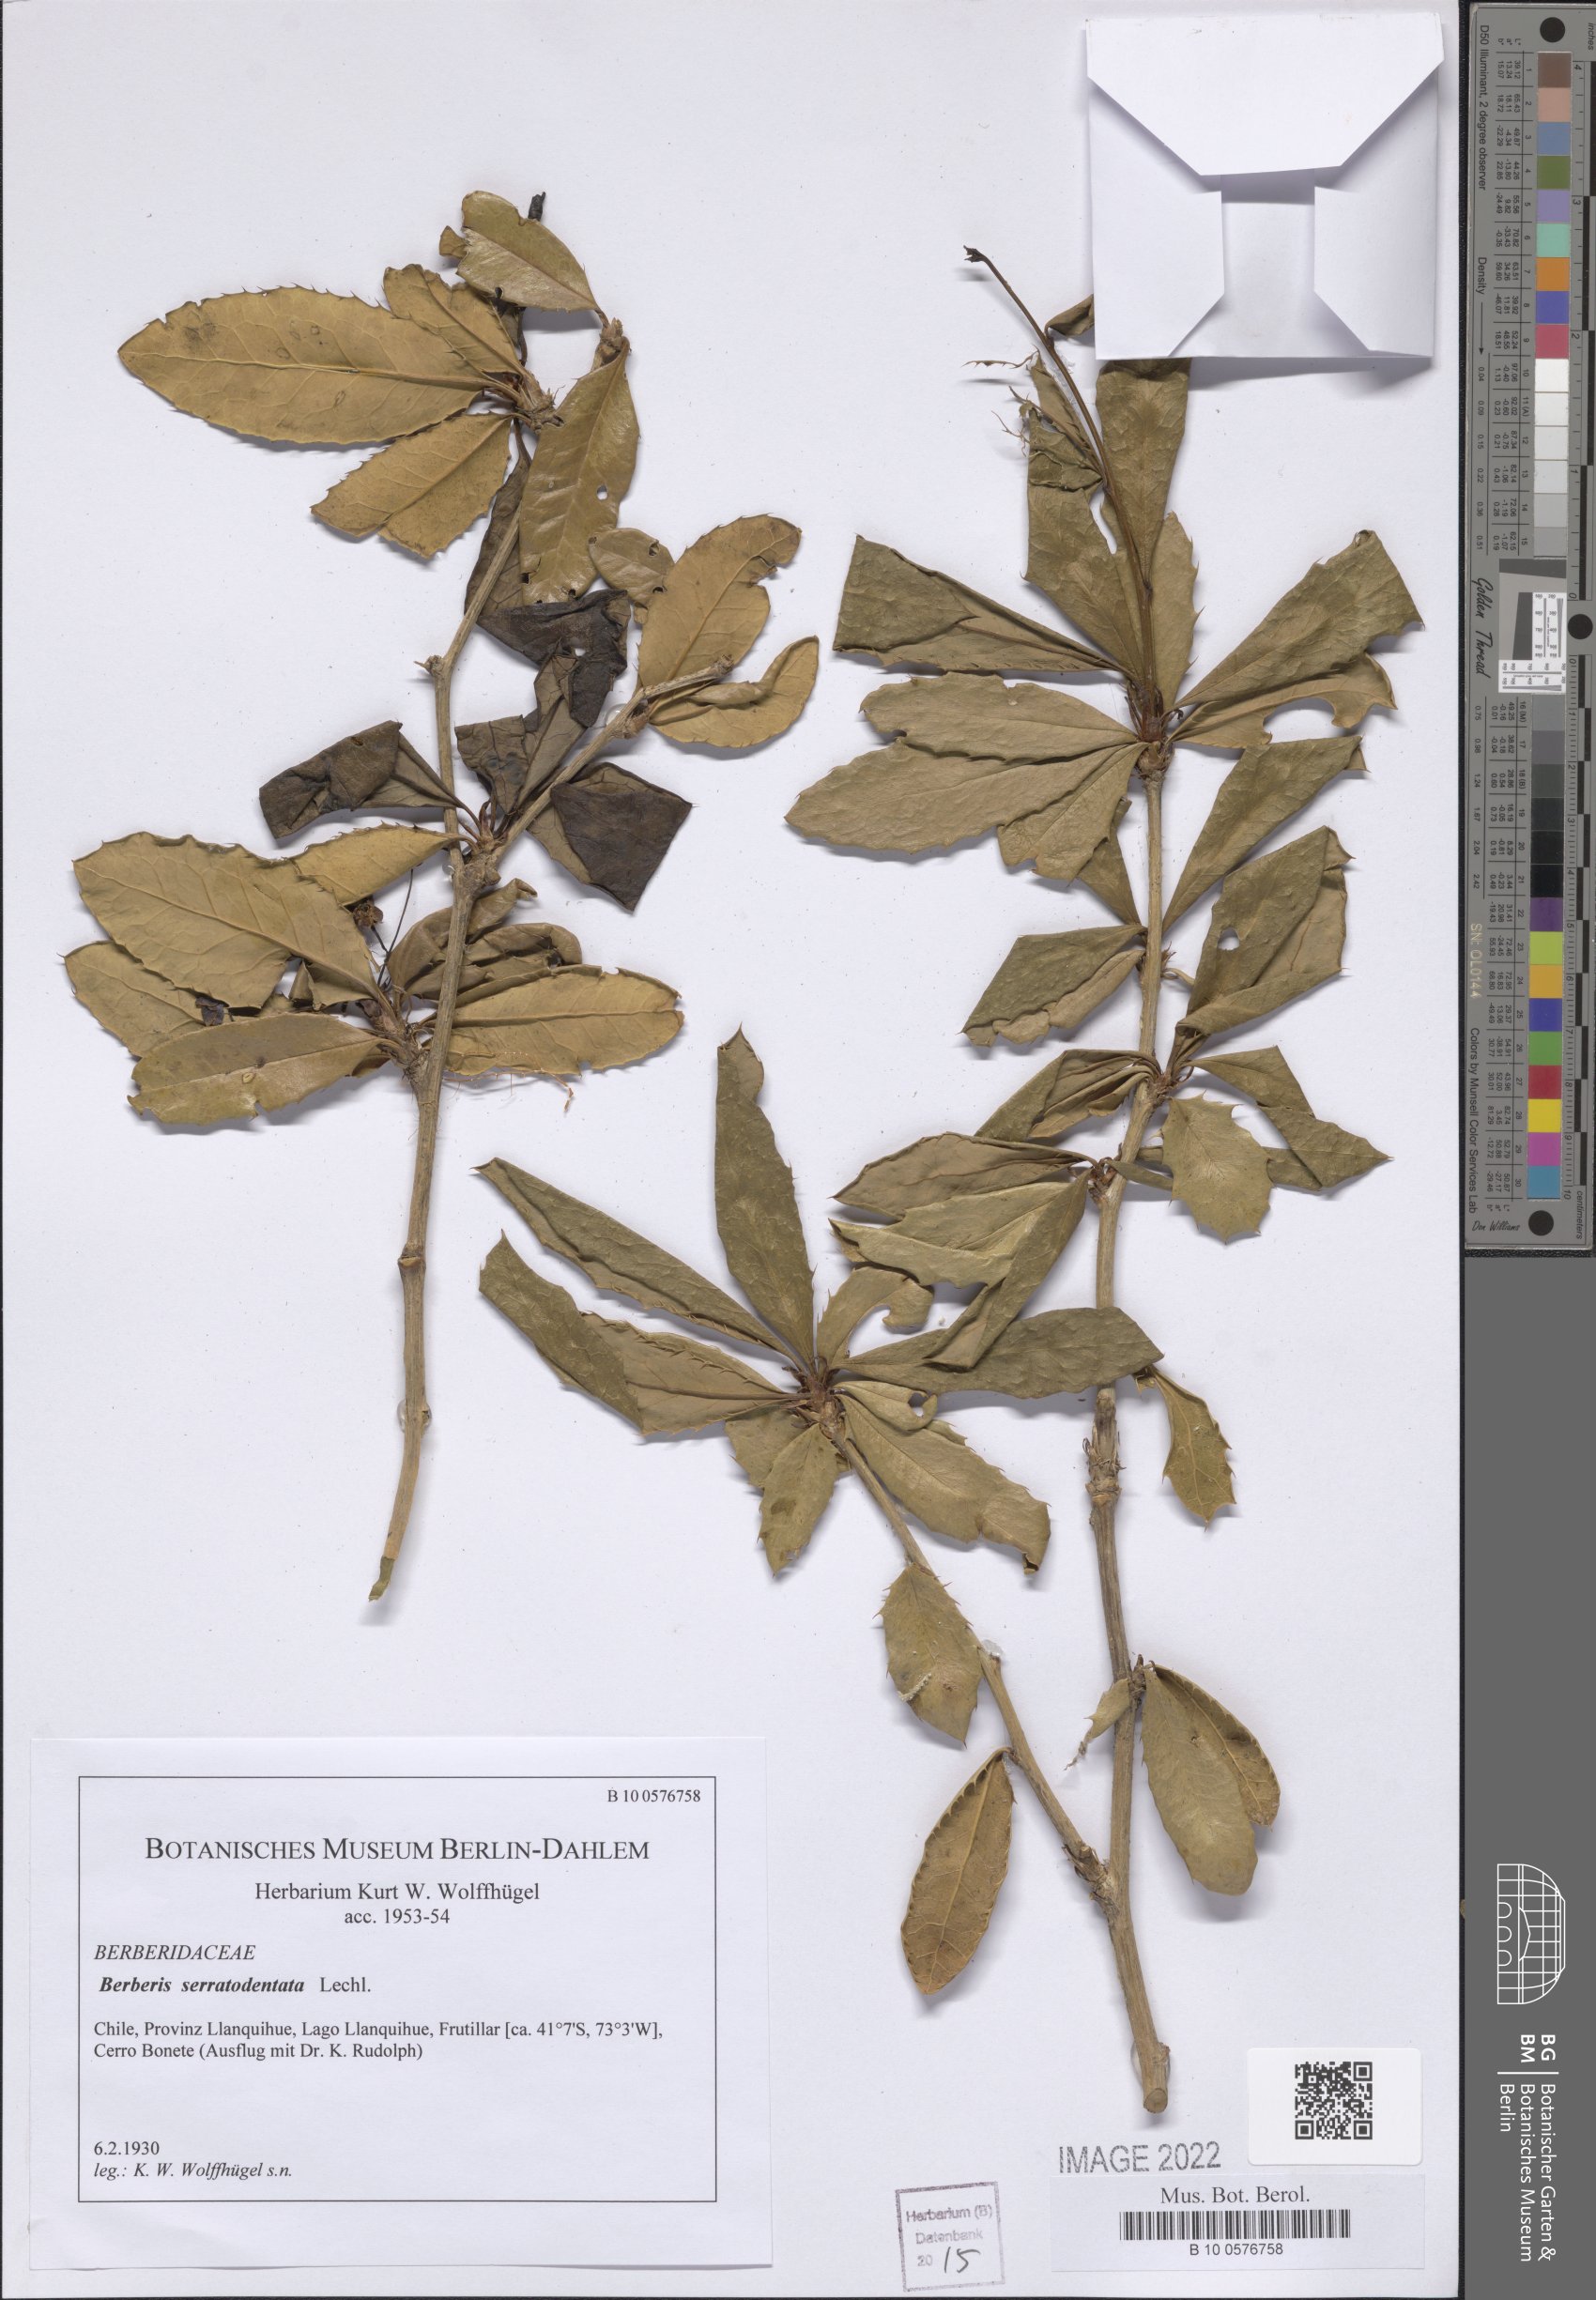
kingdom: Plantae
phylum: Tracheophyta
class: Magnoliopsida
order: Ranunculales
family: Berberidaceae
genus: Berberis
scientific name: Berberis serratodentata
